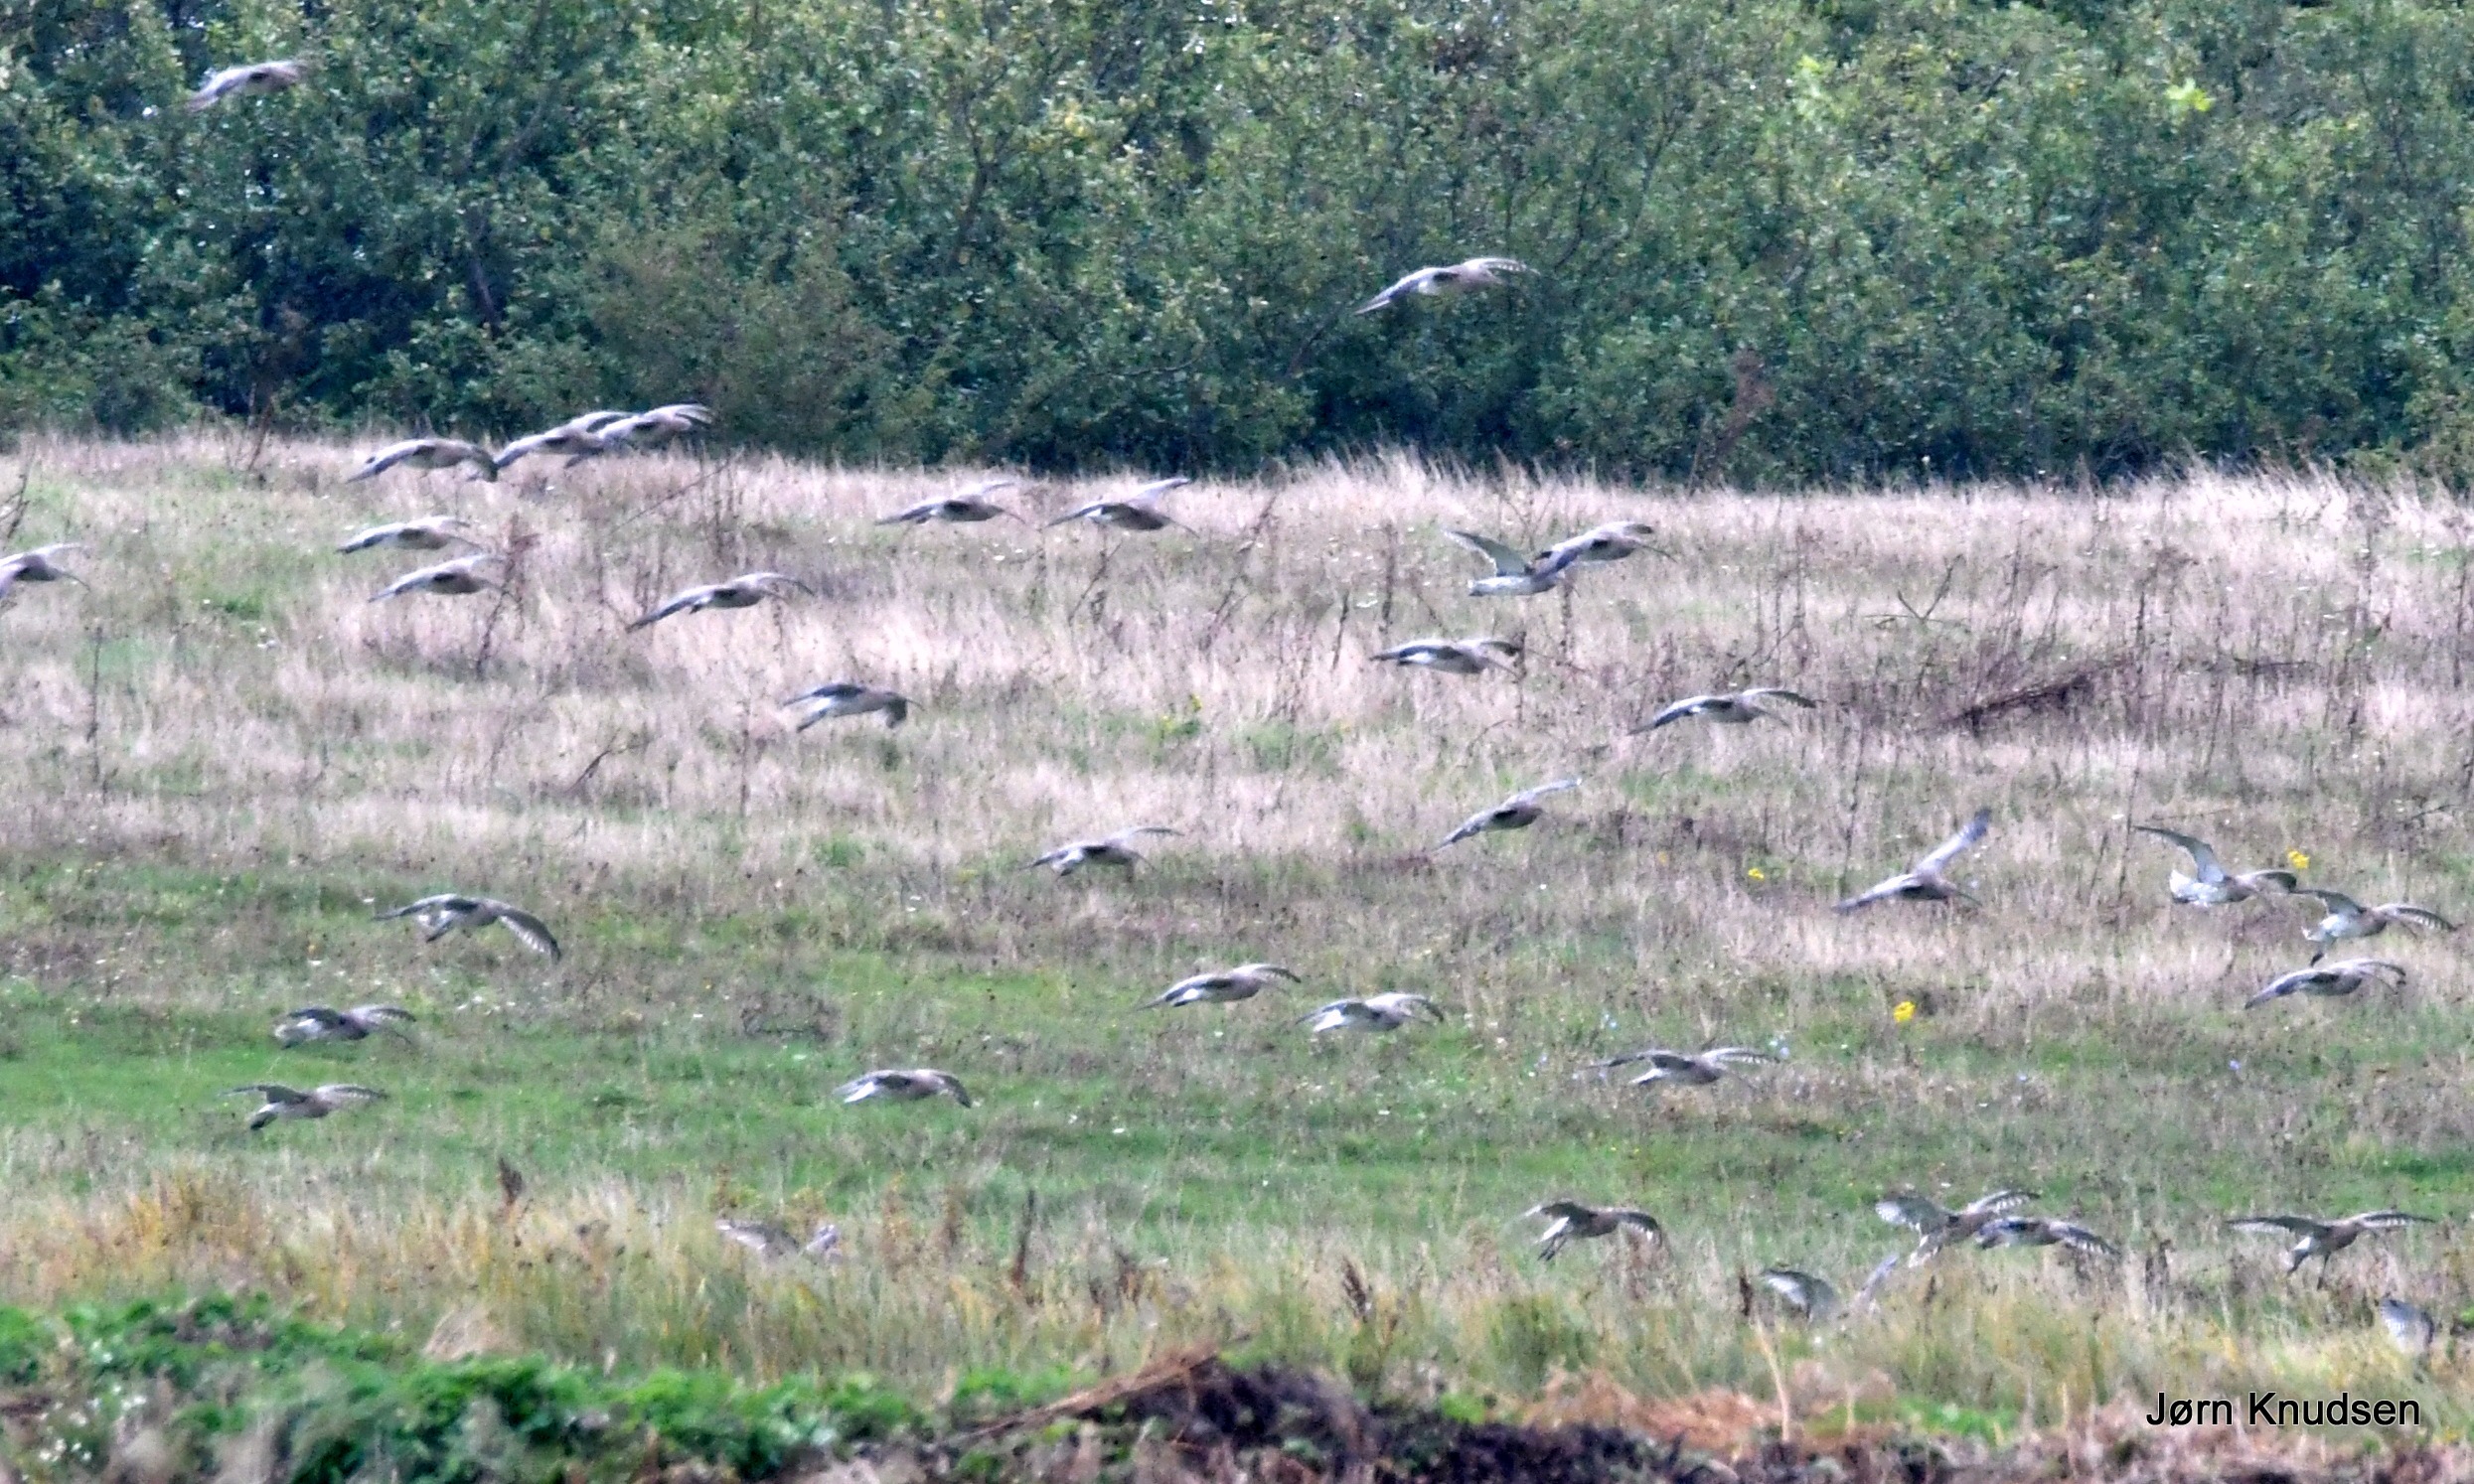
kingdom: Animalia
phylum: Chordata
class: Aves
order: Charadriiformes
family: Scolopacidae
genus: Numenius
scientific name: Numenius arquata
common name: Storspove
